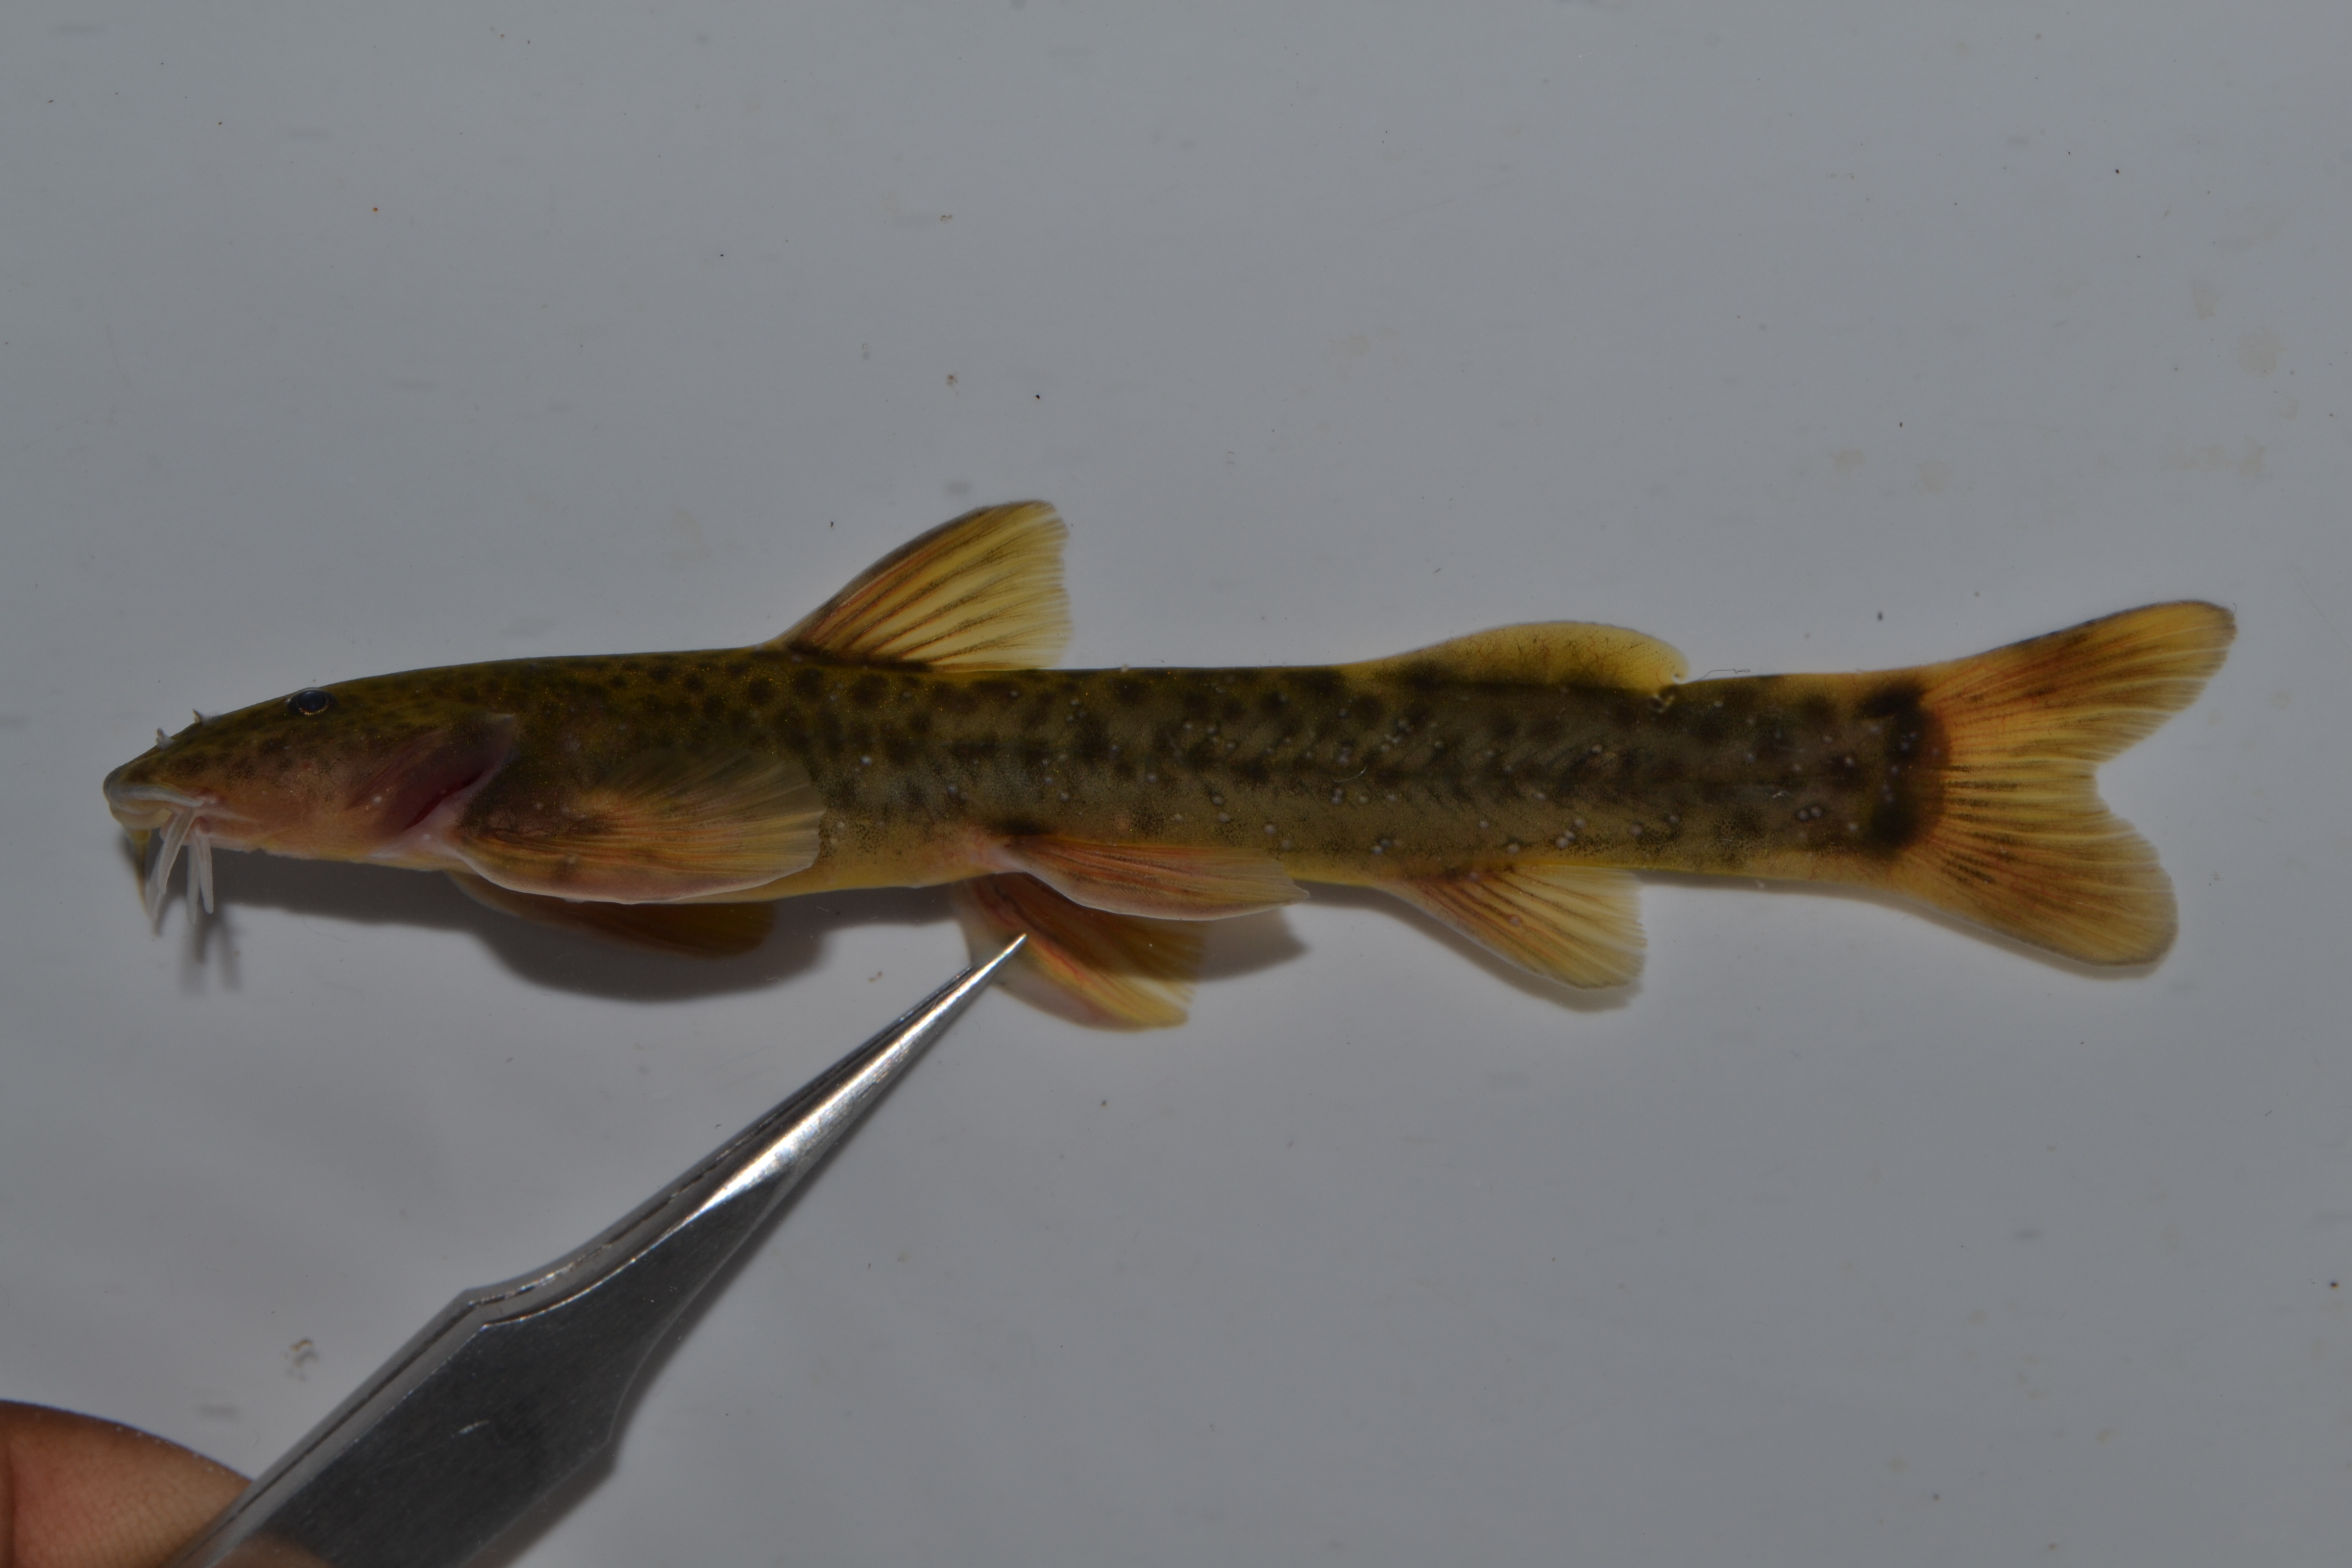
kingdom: Animalia
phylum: Chordata
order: Siluriformes
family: Amphiliidae
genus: Amphilius
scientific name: Amphilius zuluorum
